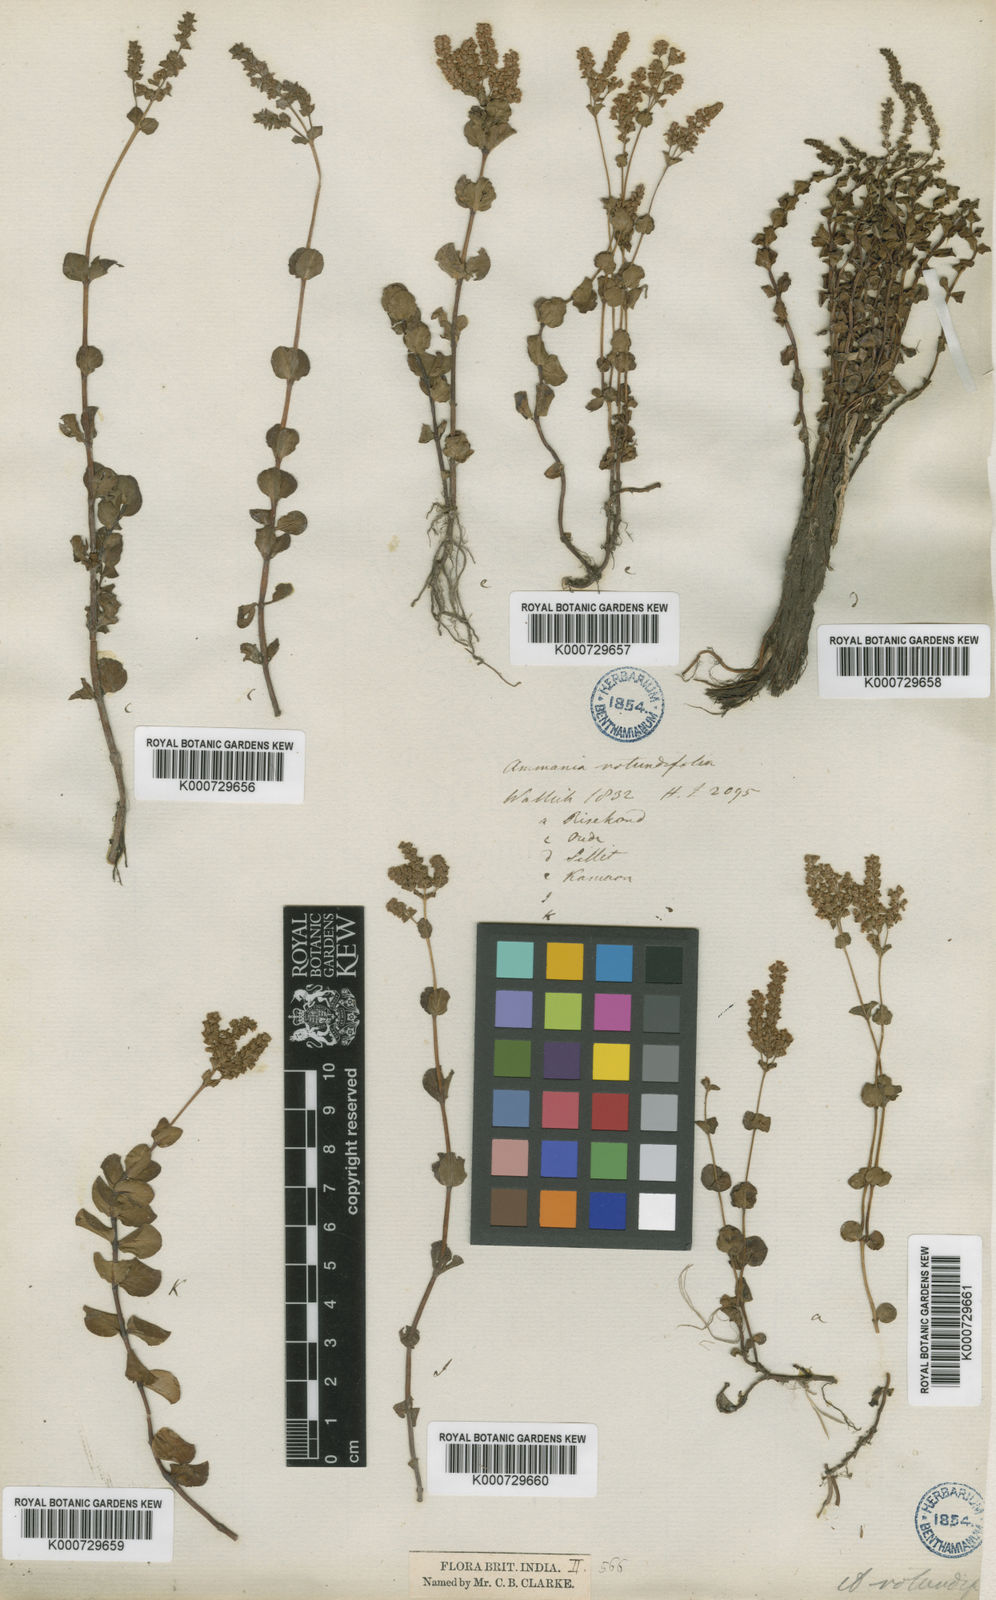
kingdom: Plantae
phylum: Tracheophyta
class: Magnoliopsida
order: Myrtales
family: Lythraceae
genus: Rotala
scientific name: Rotala rotundifolia
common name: Roundleaf toothcup
